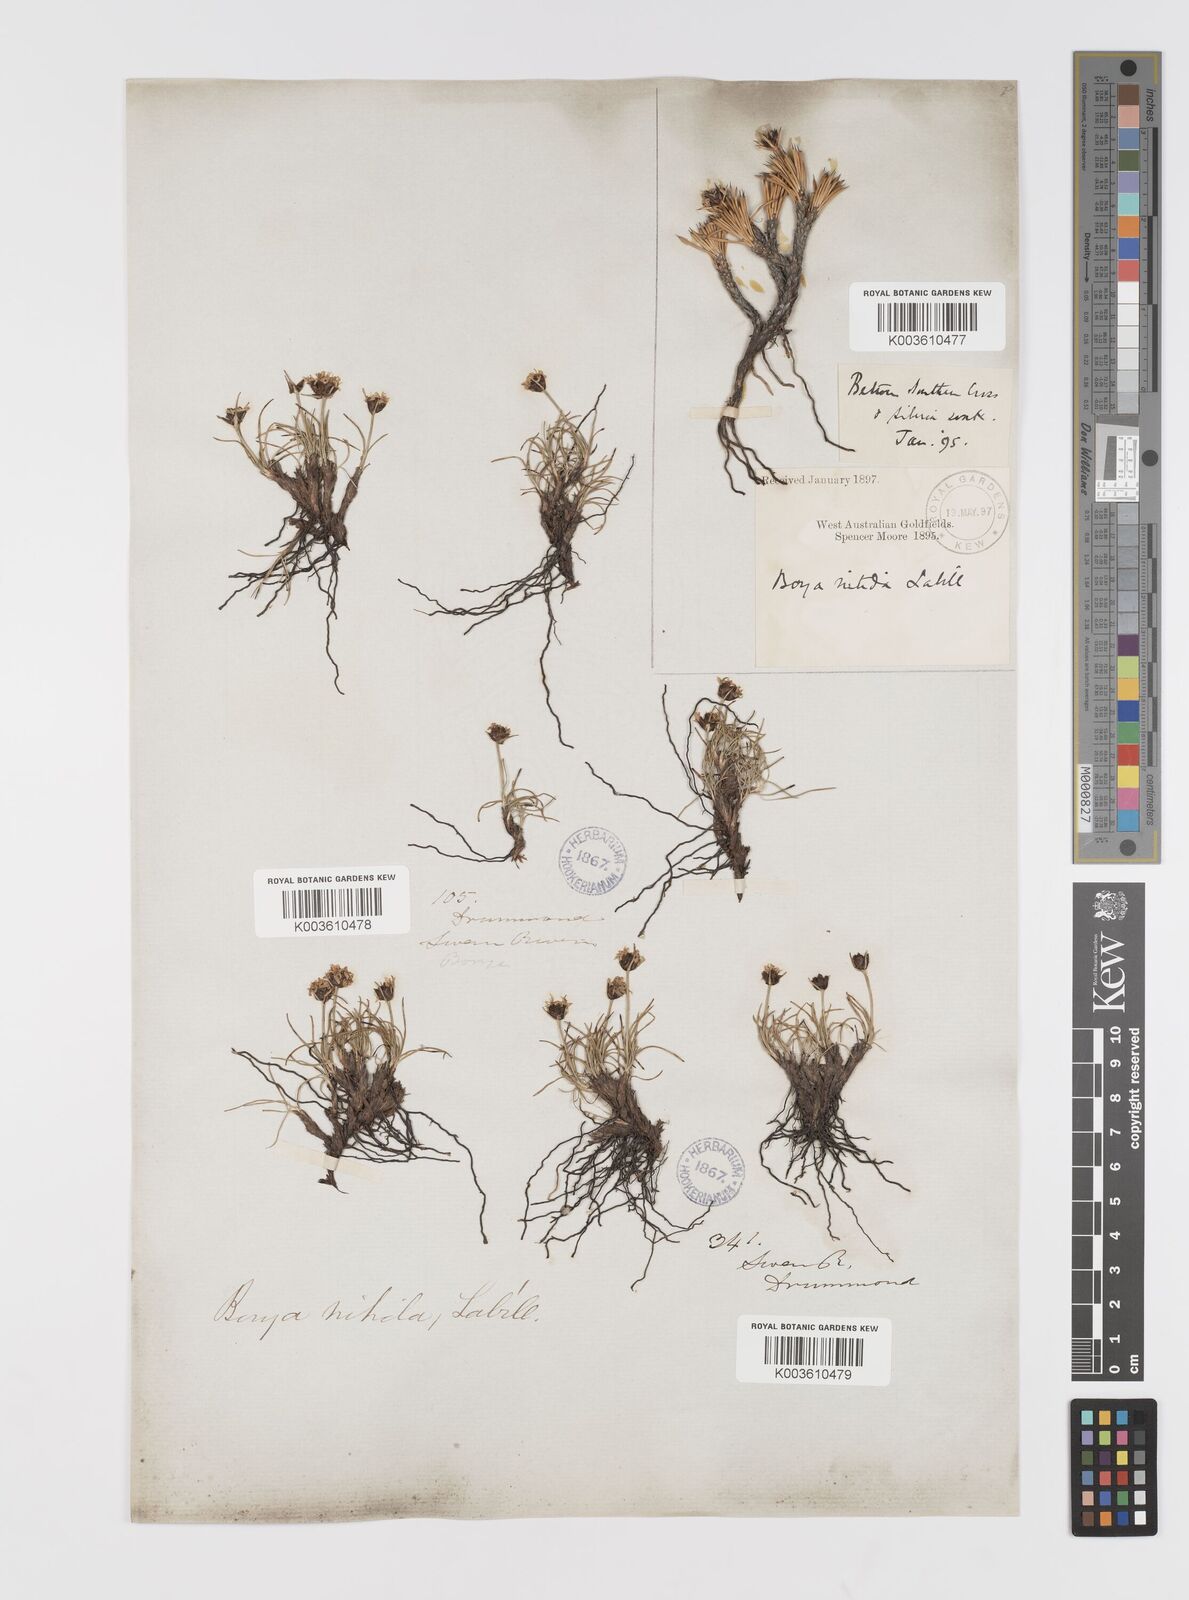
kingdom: Plantae
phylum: Tracheophyta
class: Liliopsida
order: Asparagales
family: Boryaceae
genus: Borya
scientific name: Borya nitida
